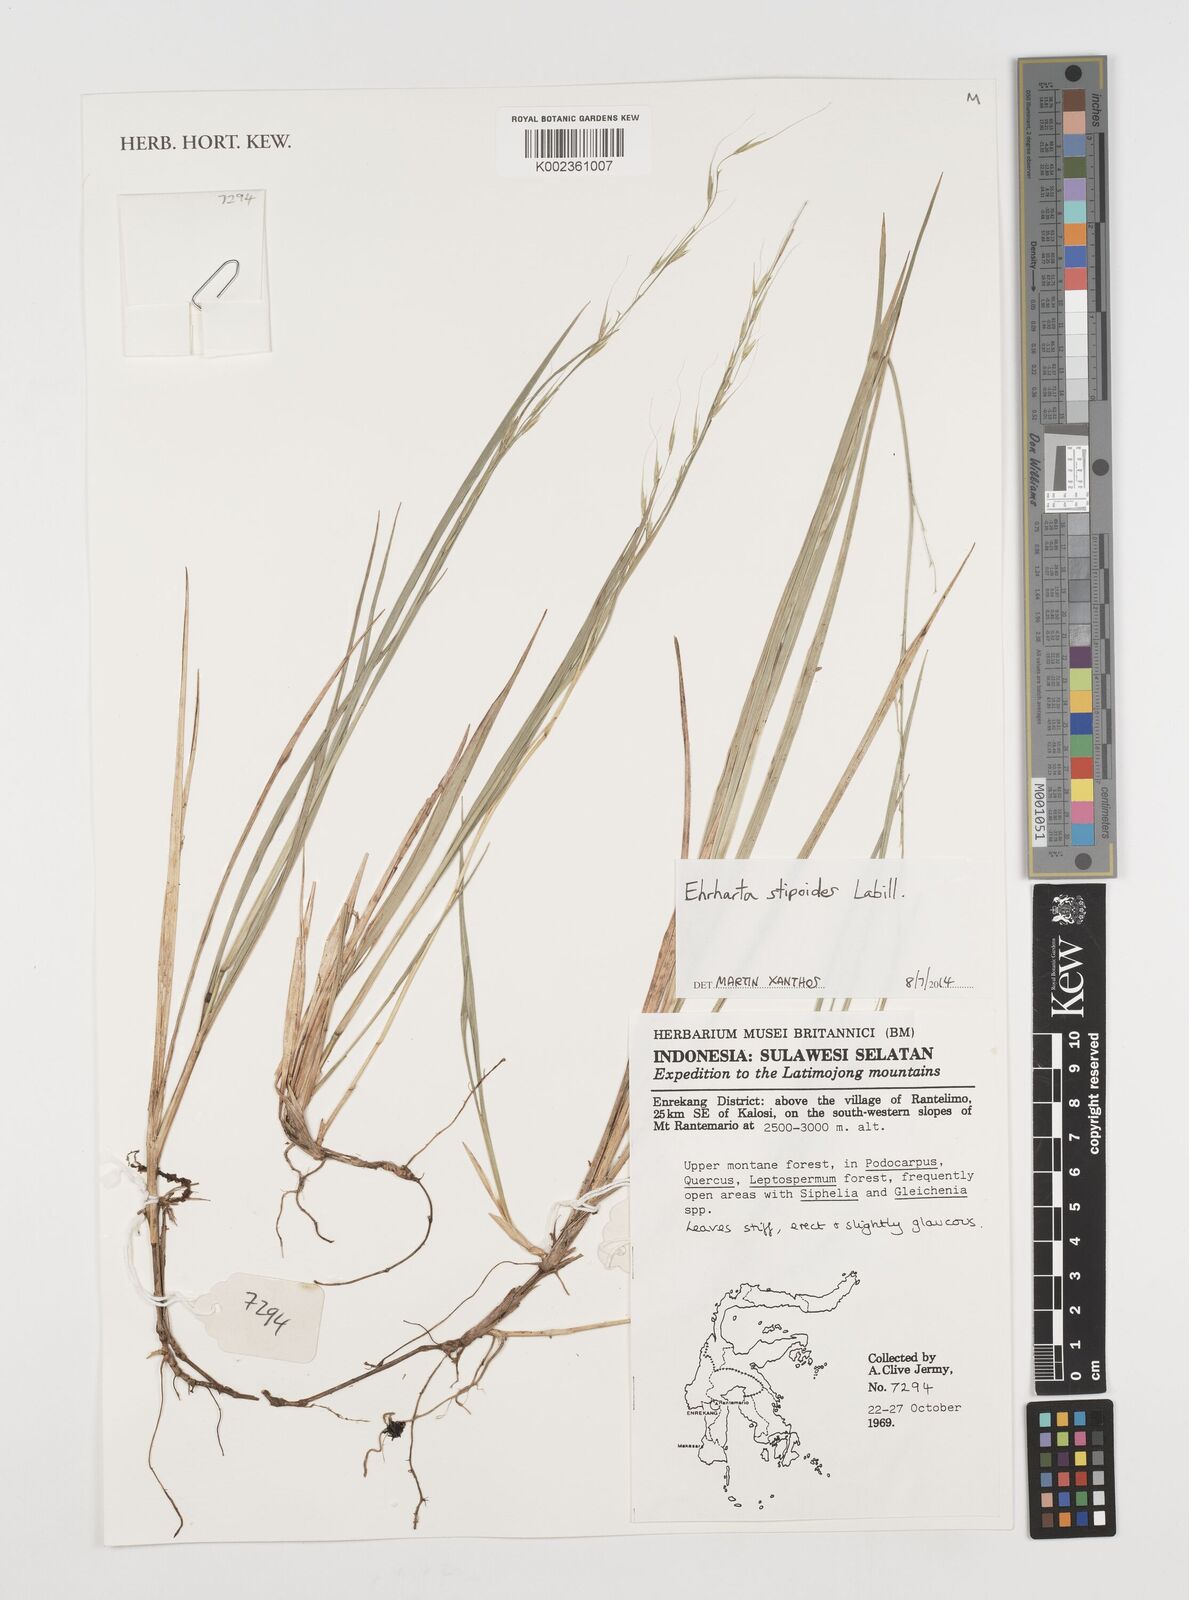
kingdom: Plantae
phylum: Tracheophyta
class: Liliopsida
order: Poales
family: Poaceae
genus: Microlaena
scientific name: Microlaena stipoides
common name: Meadow ricegrass
